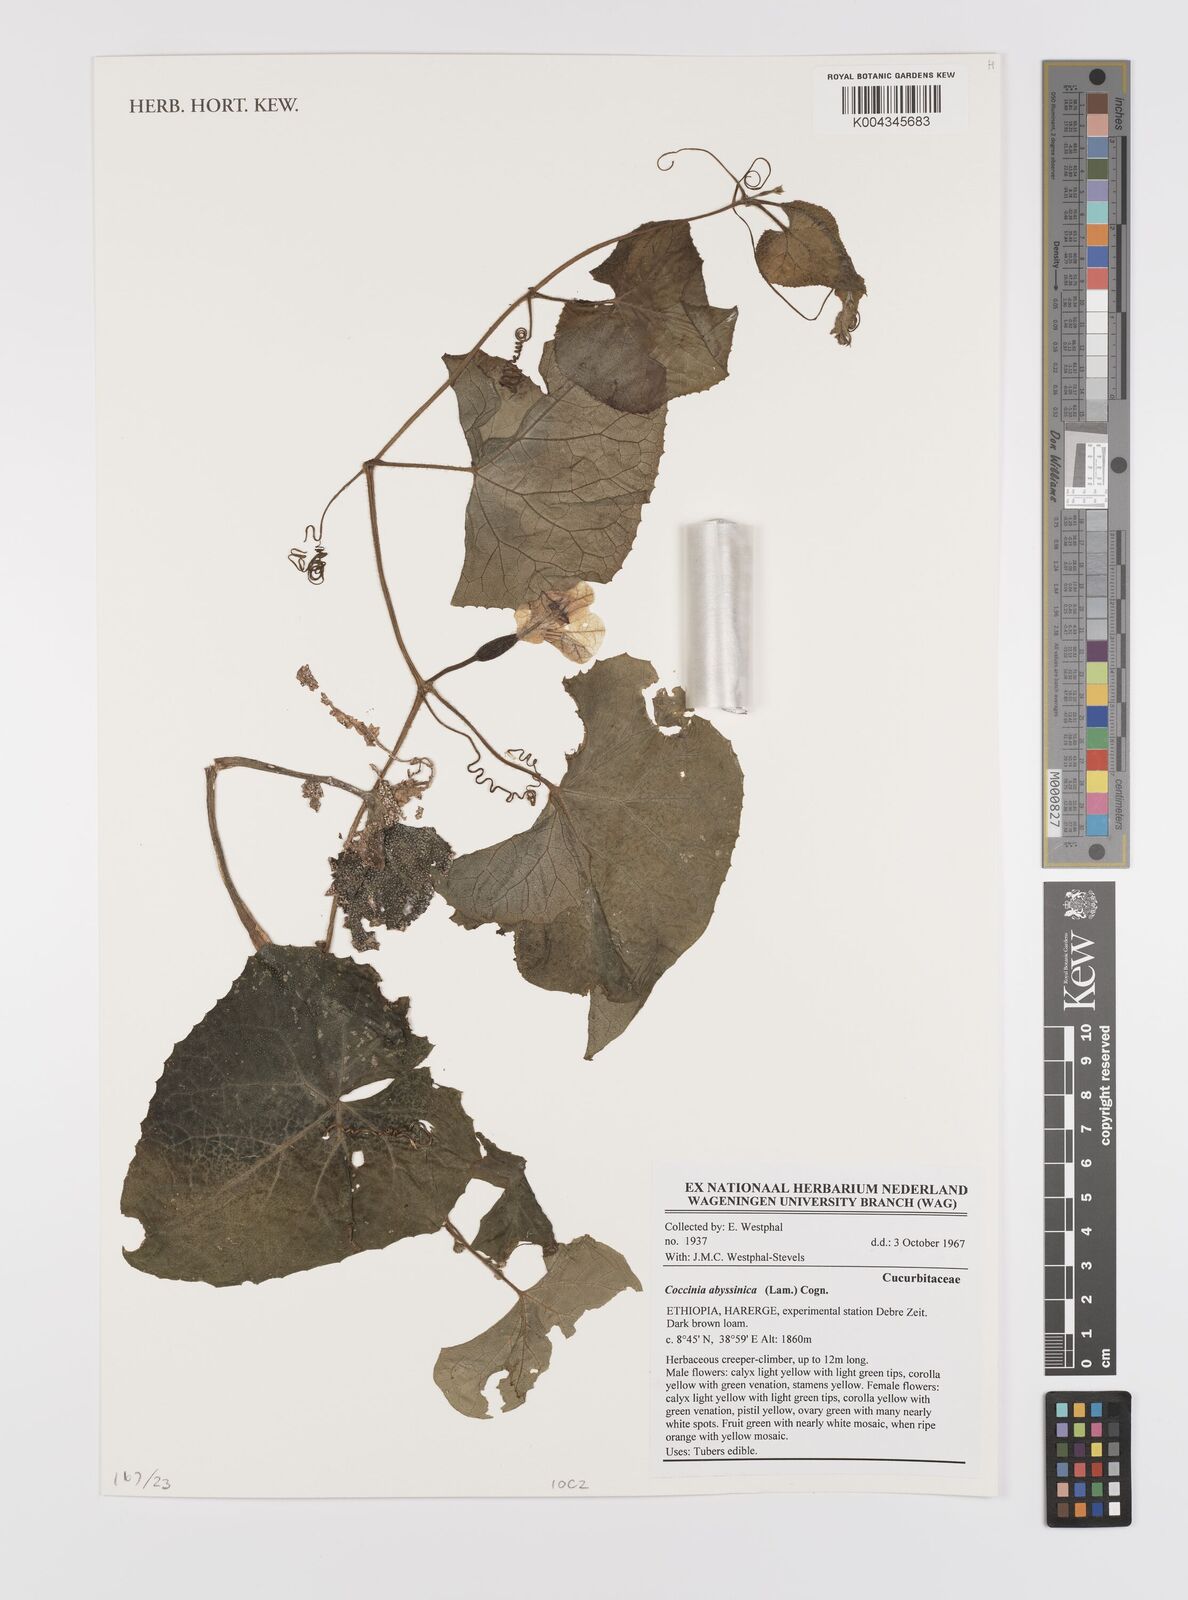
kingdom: Plantae
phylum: Tracheophyta
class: Magnoliopsida
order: Cucurbitales
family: Cucurbitaceae
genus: Coccinia
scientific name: Coccinia abyssinica
